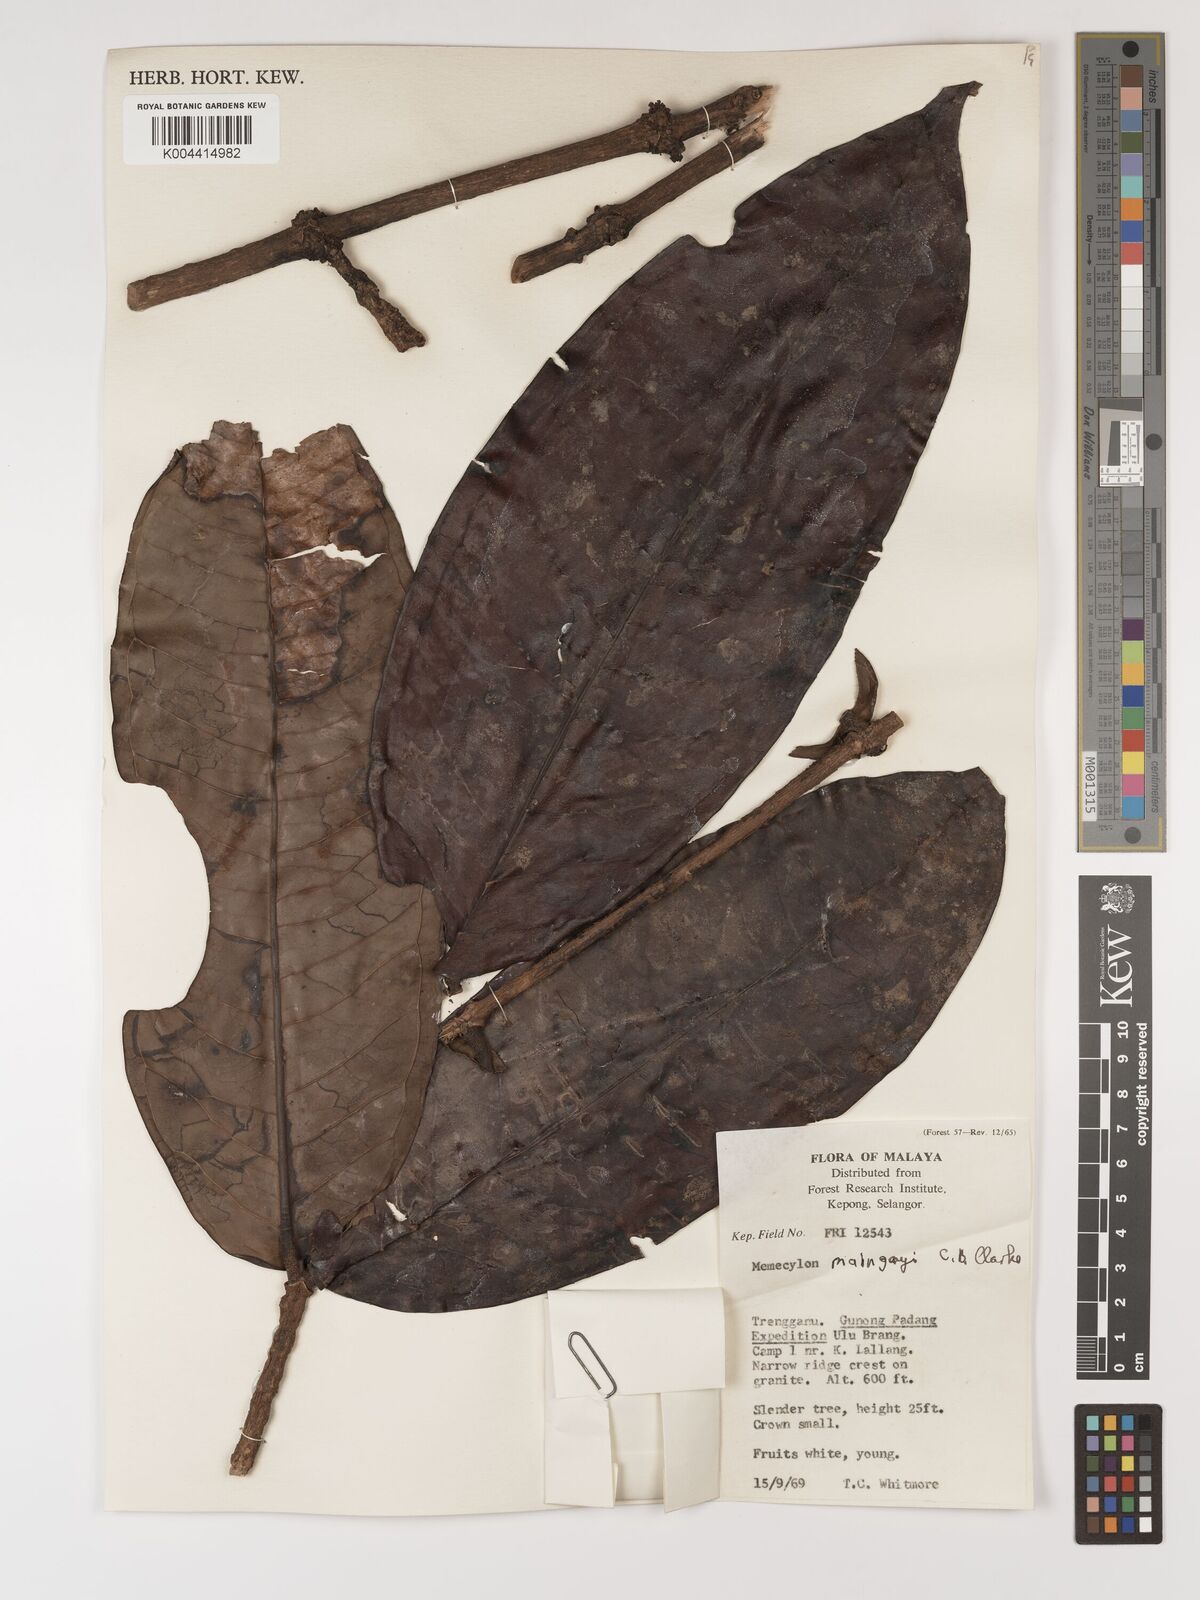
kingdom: Plantae
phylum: Tracheophyta
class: Magnoliopsida
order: Myrtales
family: Melastomataceae
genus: Memecylon
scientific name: Memecylon excelsum
